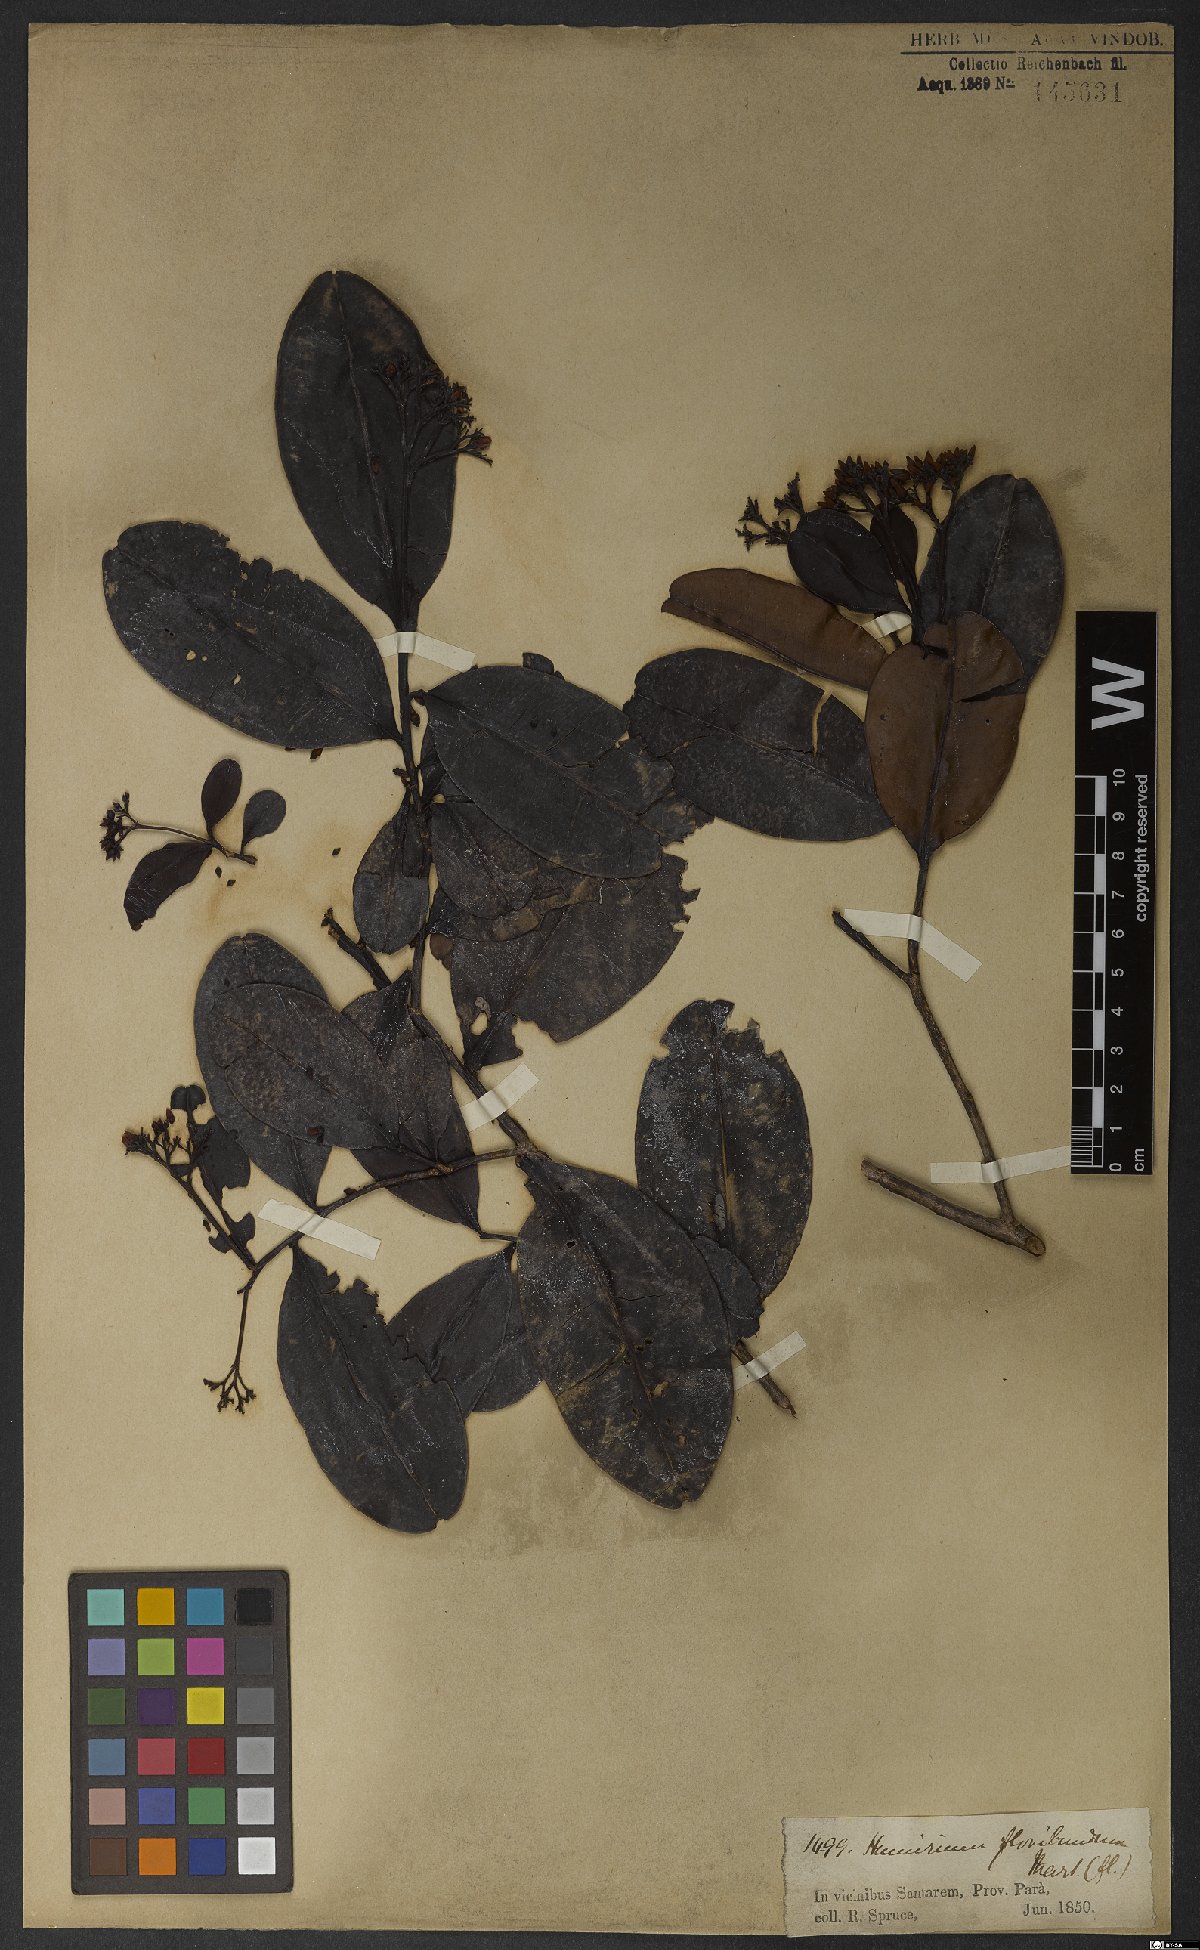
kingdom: Plantae
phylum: Tracheophyta
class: Magnoliopsida
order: Malpighiales
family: Humiriaceae
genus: Humiria
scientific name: Humiria balsamifera
